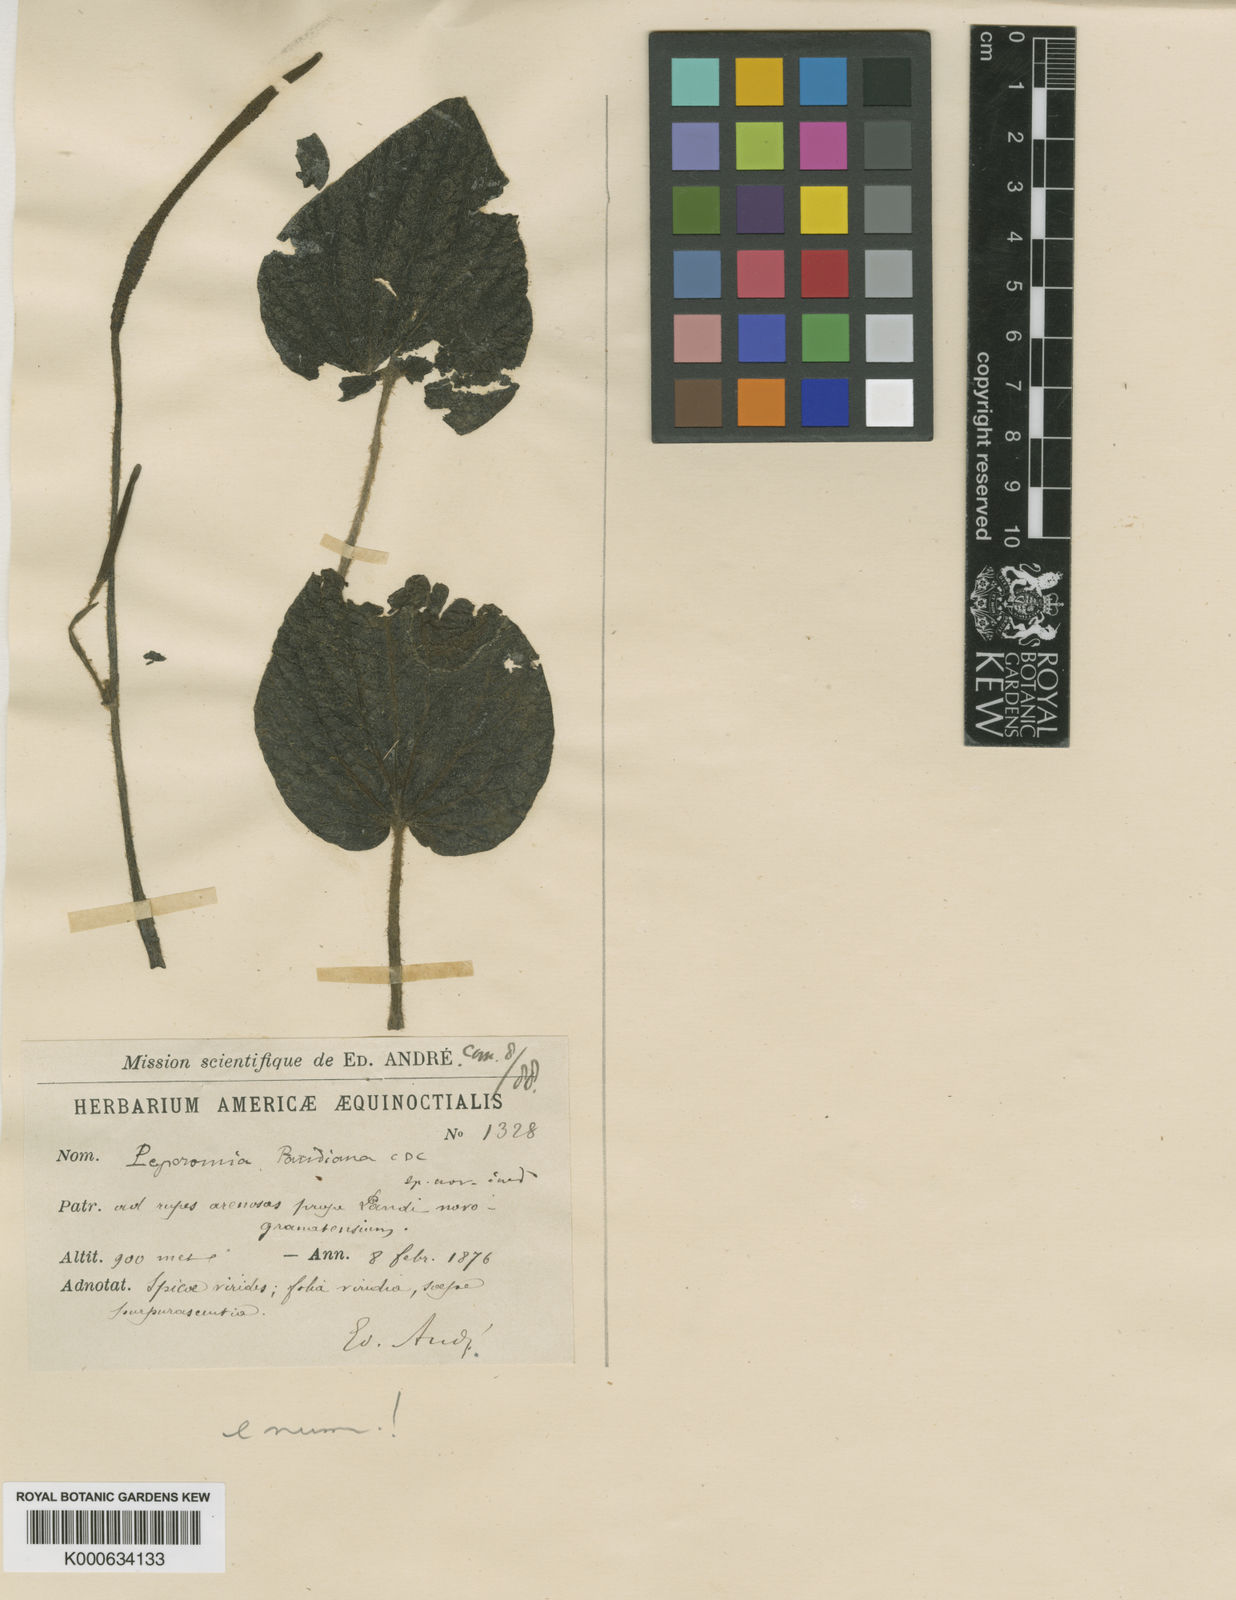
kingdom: Plantae
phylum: Tracheophyta
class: Magnoliopsida
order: Piperales
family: Piperaceae
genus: Peperomia
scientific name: Peperomia pandiana
